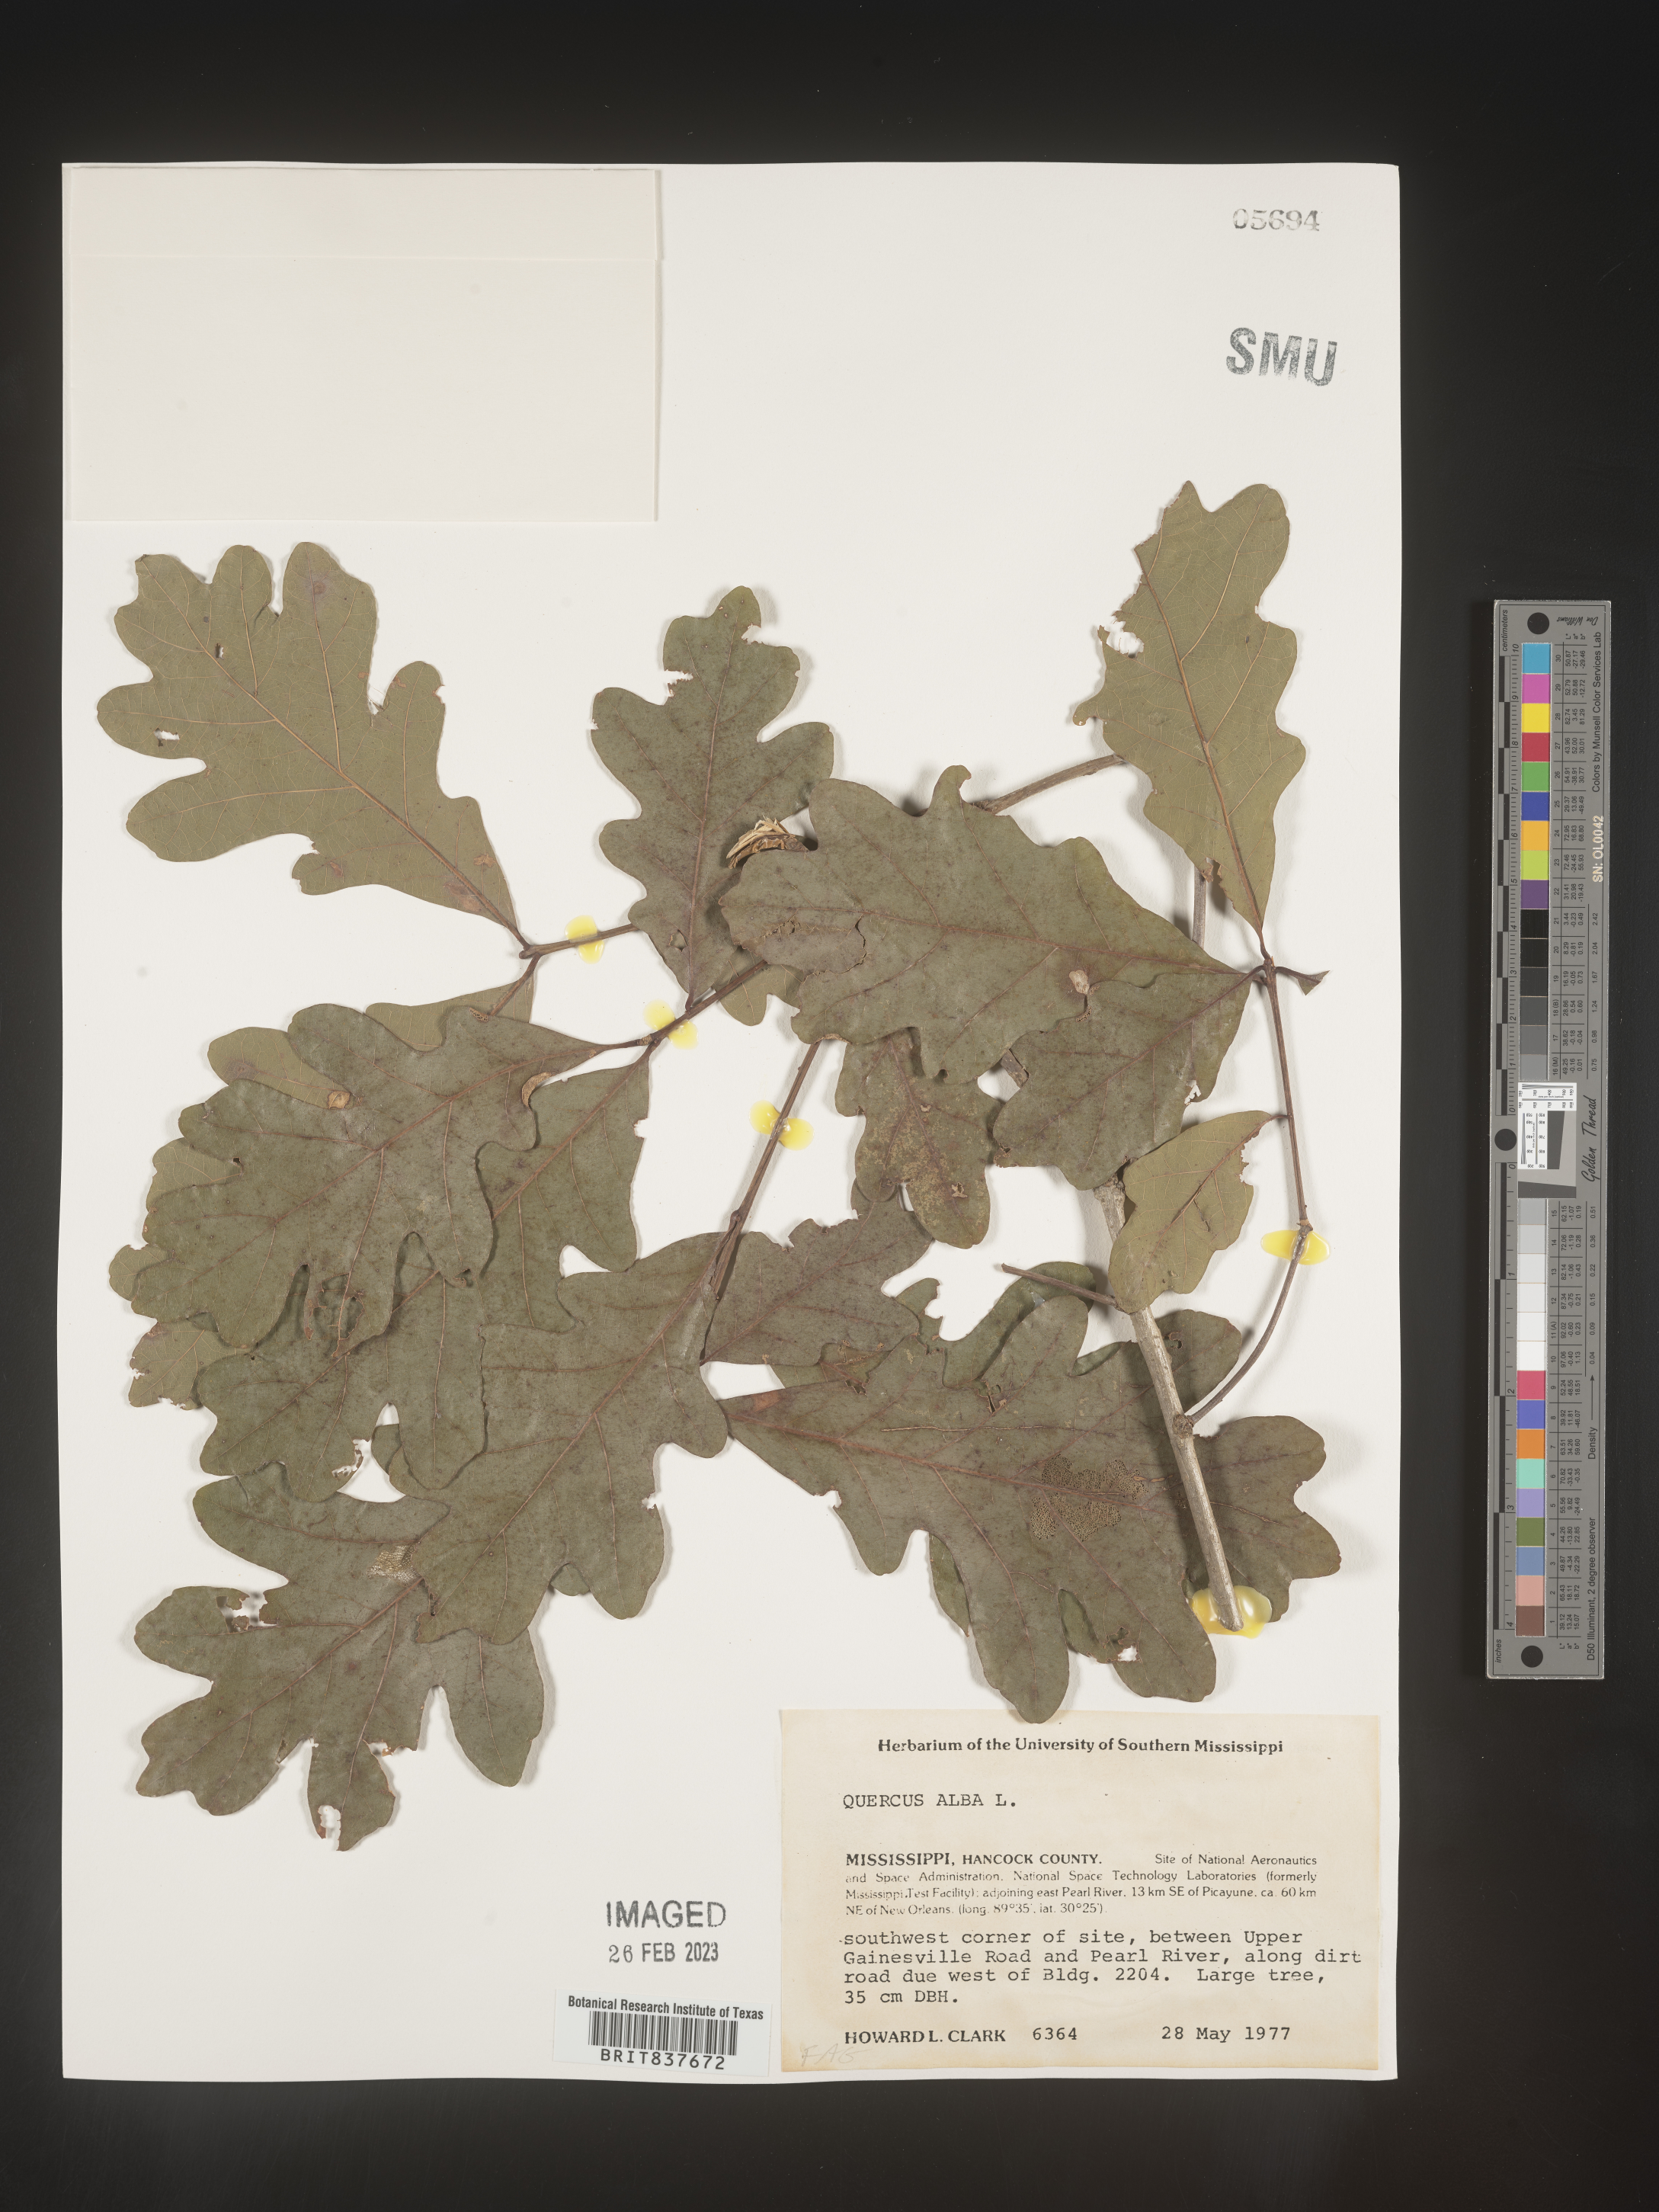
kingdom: Plantae
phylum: Tracheophyta
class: Magnoliopsida
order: Fagales
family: Fagaceae
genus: Quercus
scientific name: Quercus alba
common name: White oak
